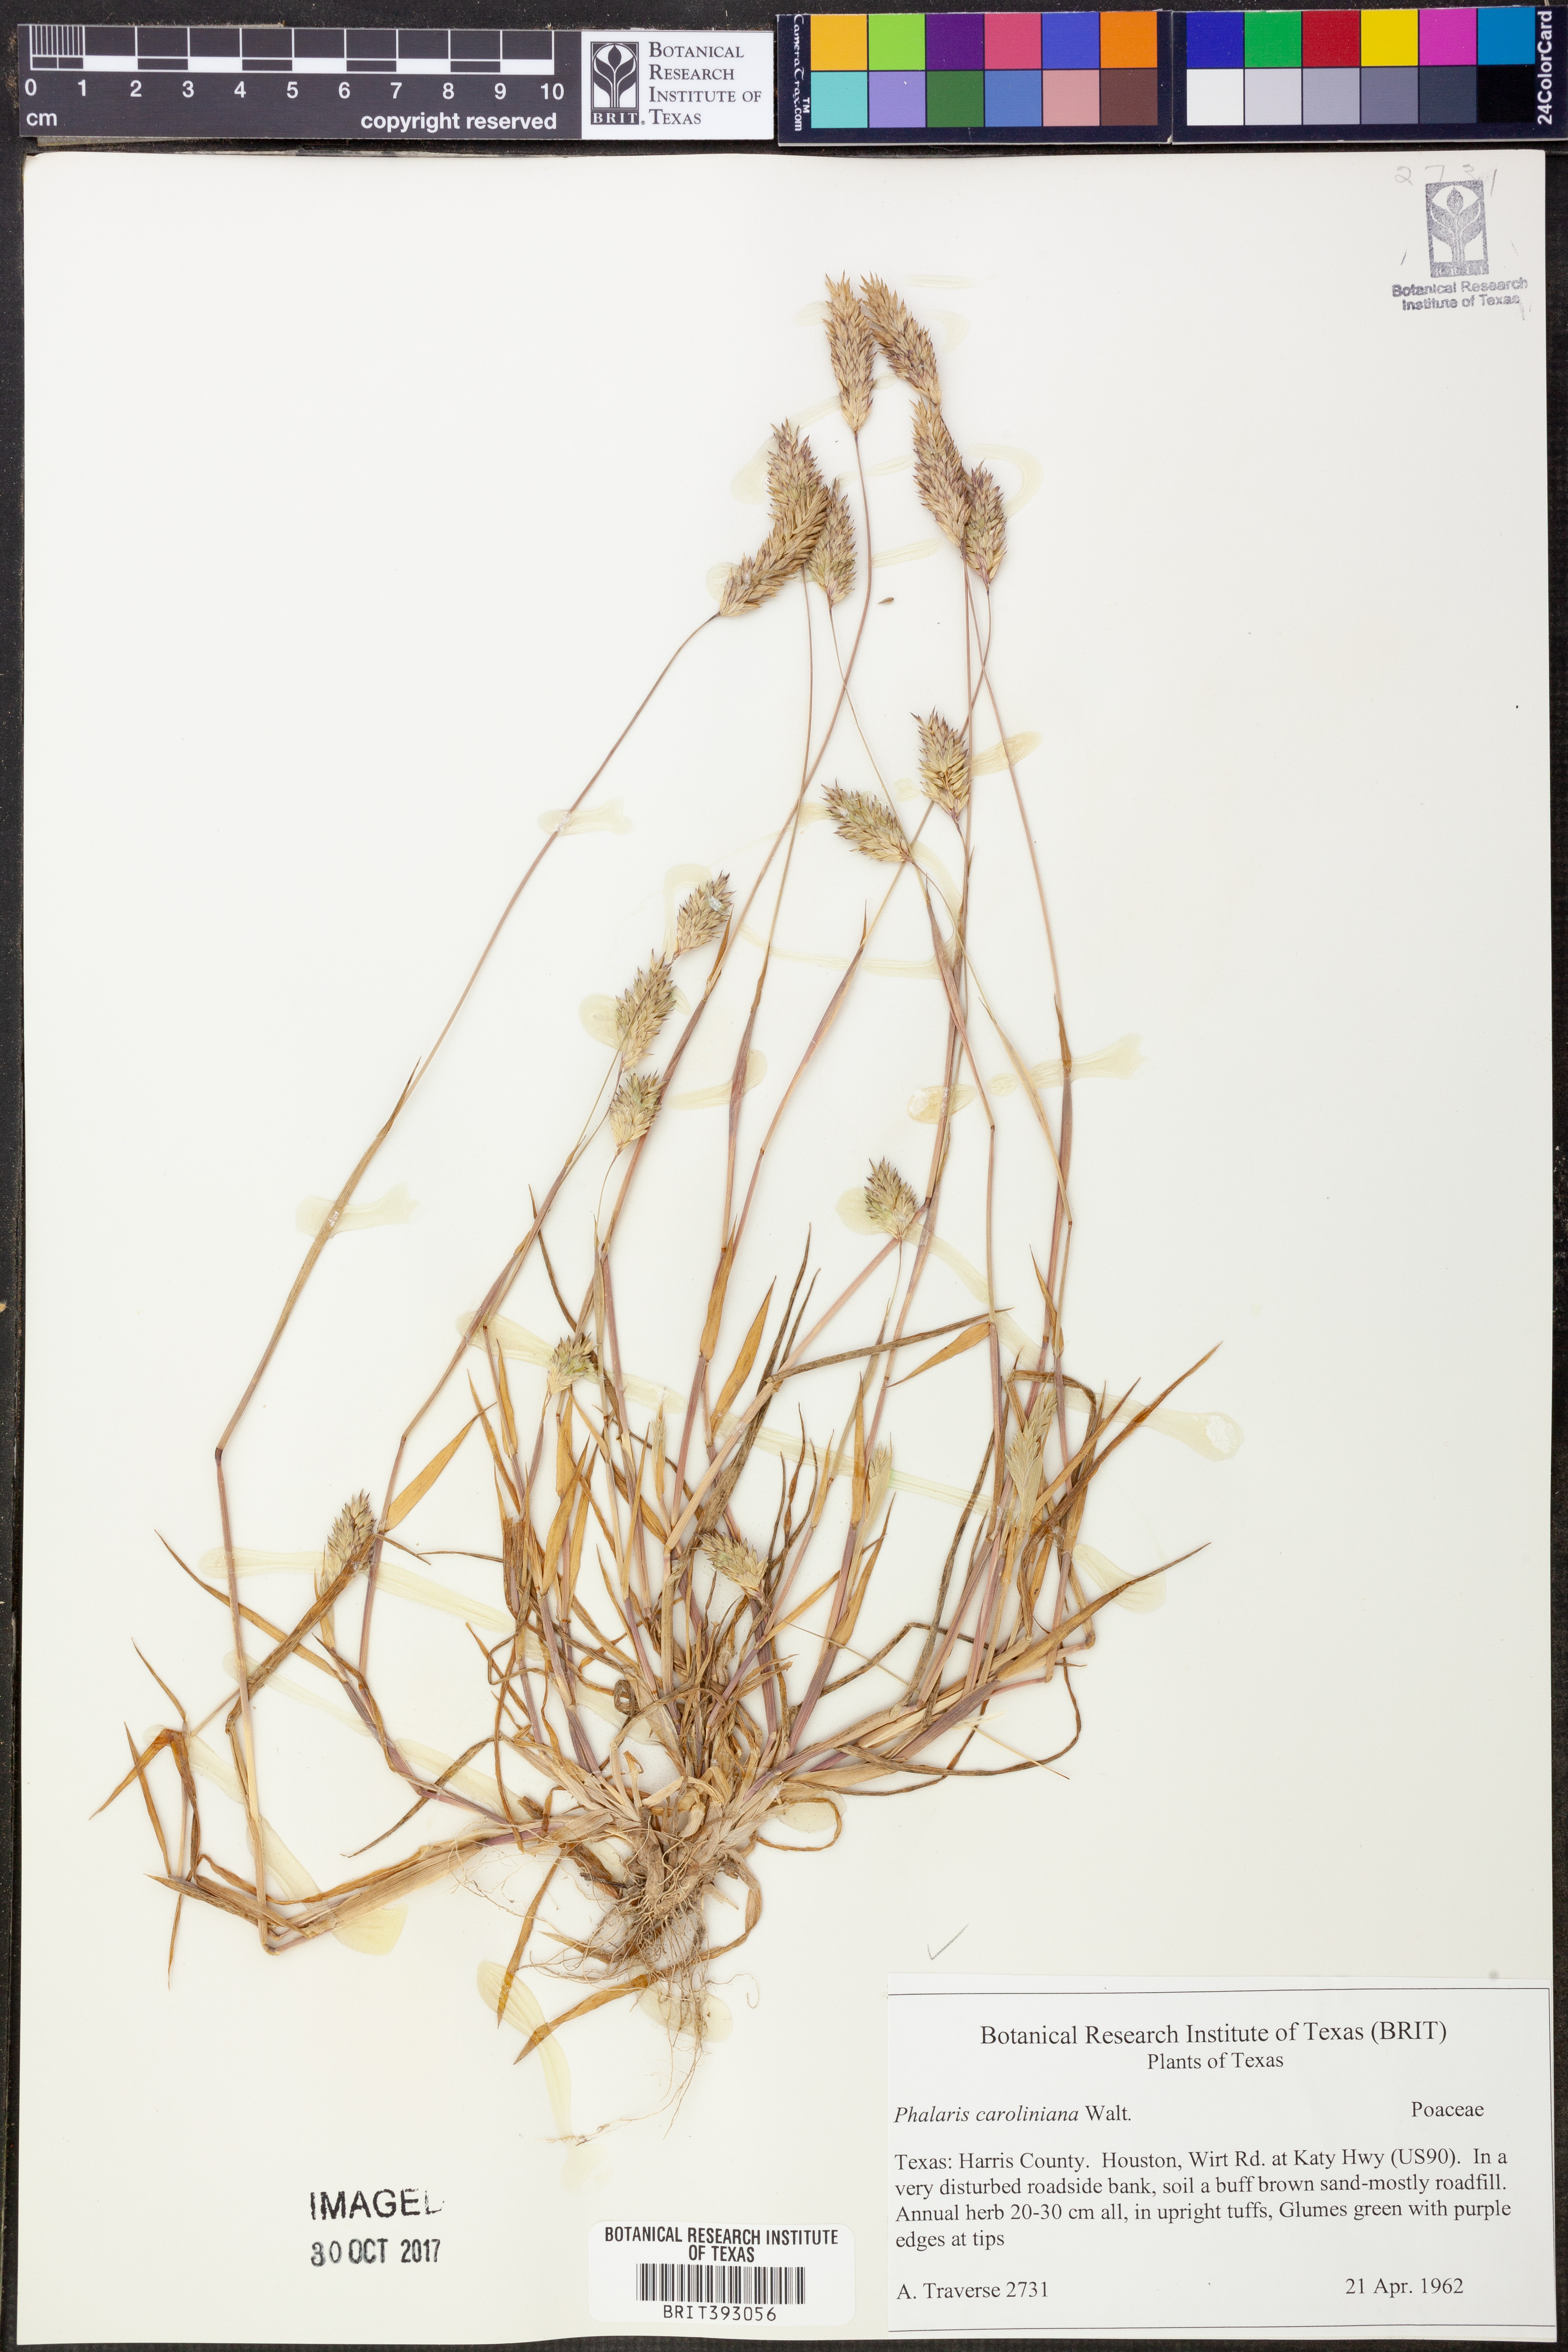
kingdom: Plantae
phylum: Tracheophyta
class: Liliopsida
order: Poales
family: Poaceae
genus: Phalaris
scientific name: Phalaris caroliniana
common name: May grass
